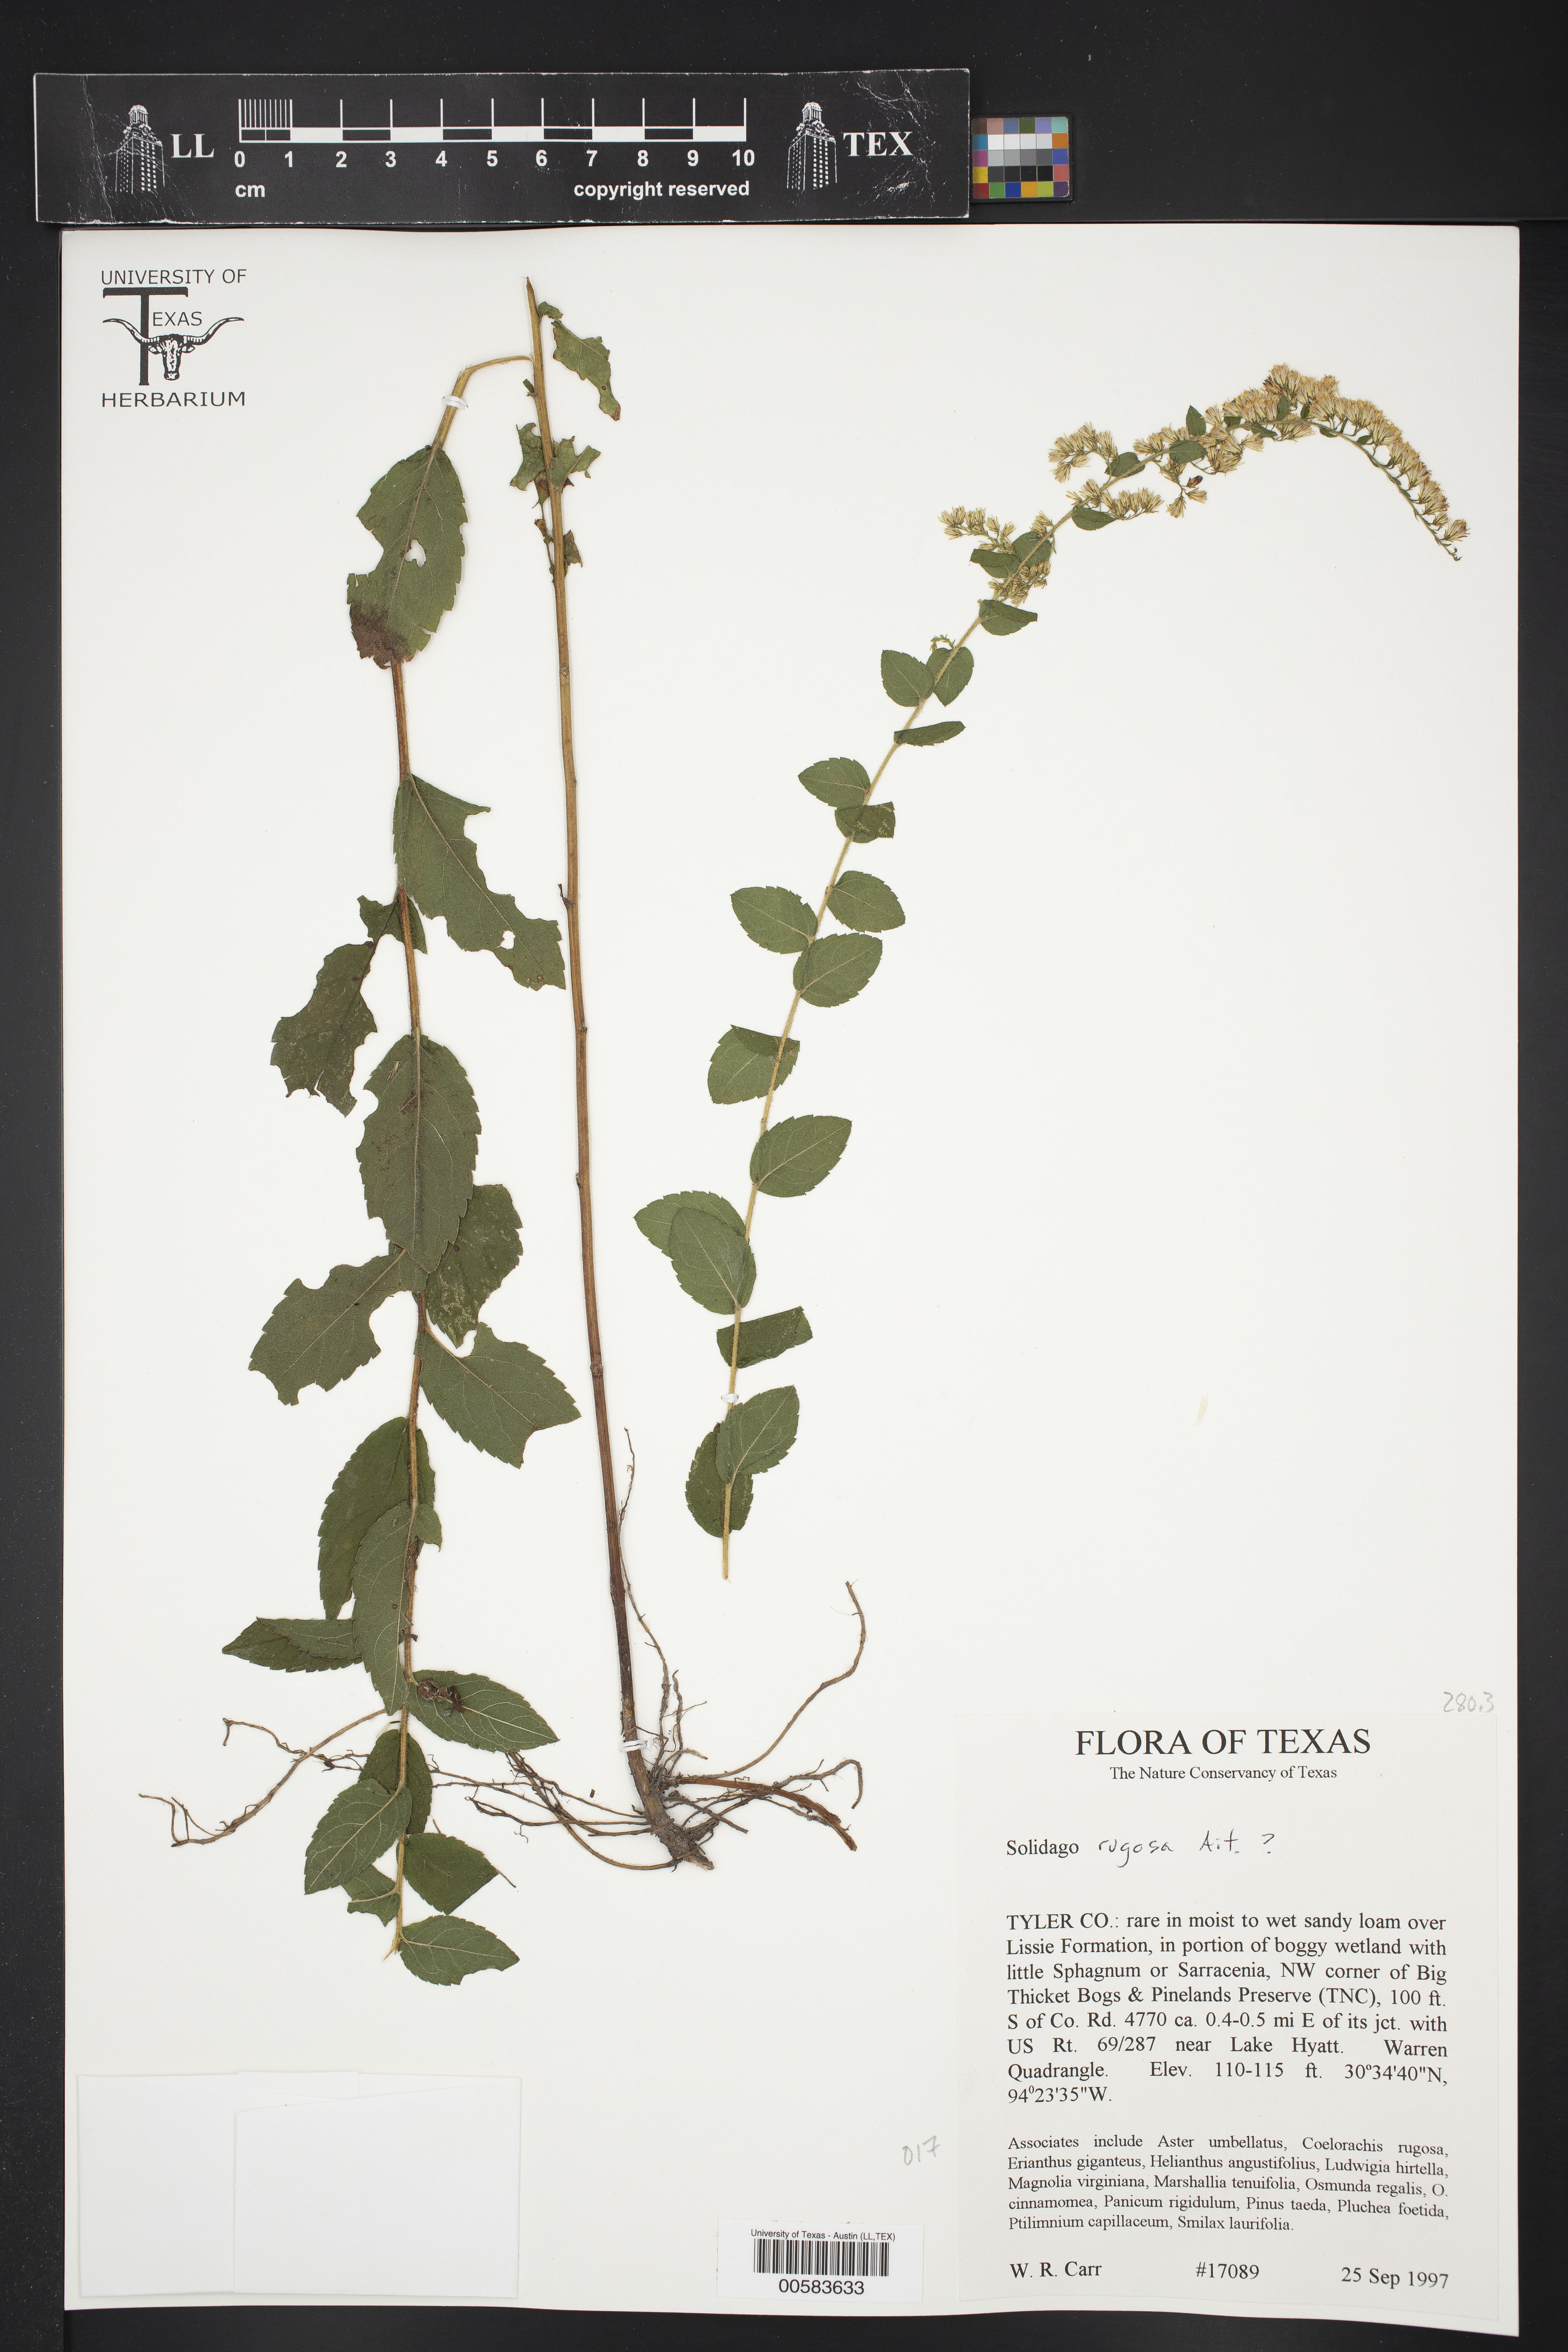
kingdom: Plantae
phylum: Tracheophyta
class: Magnoliopsida
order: Asterales
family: Asteraceae
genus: Solidago
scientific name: Solidago rugosa
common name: Rough-stemmed goldenrod
